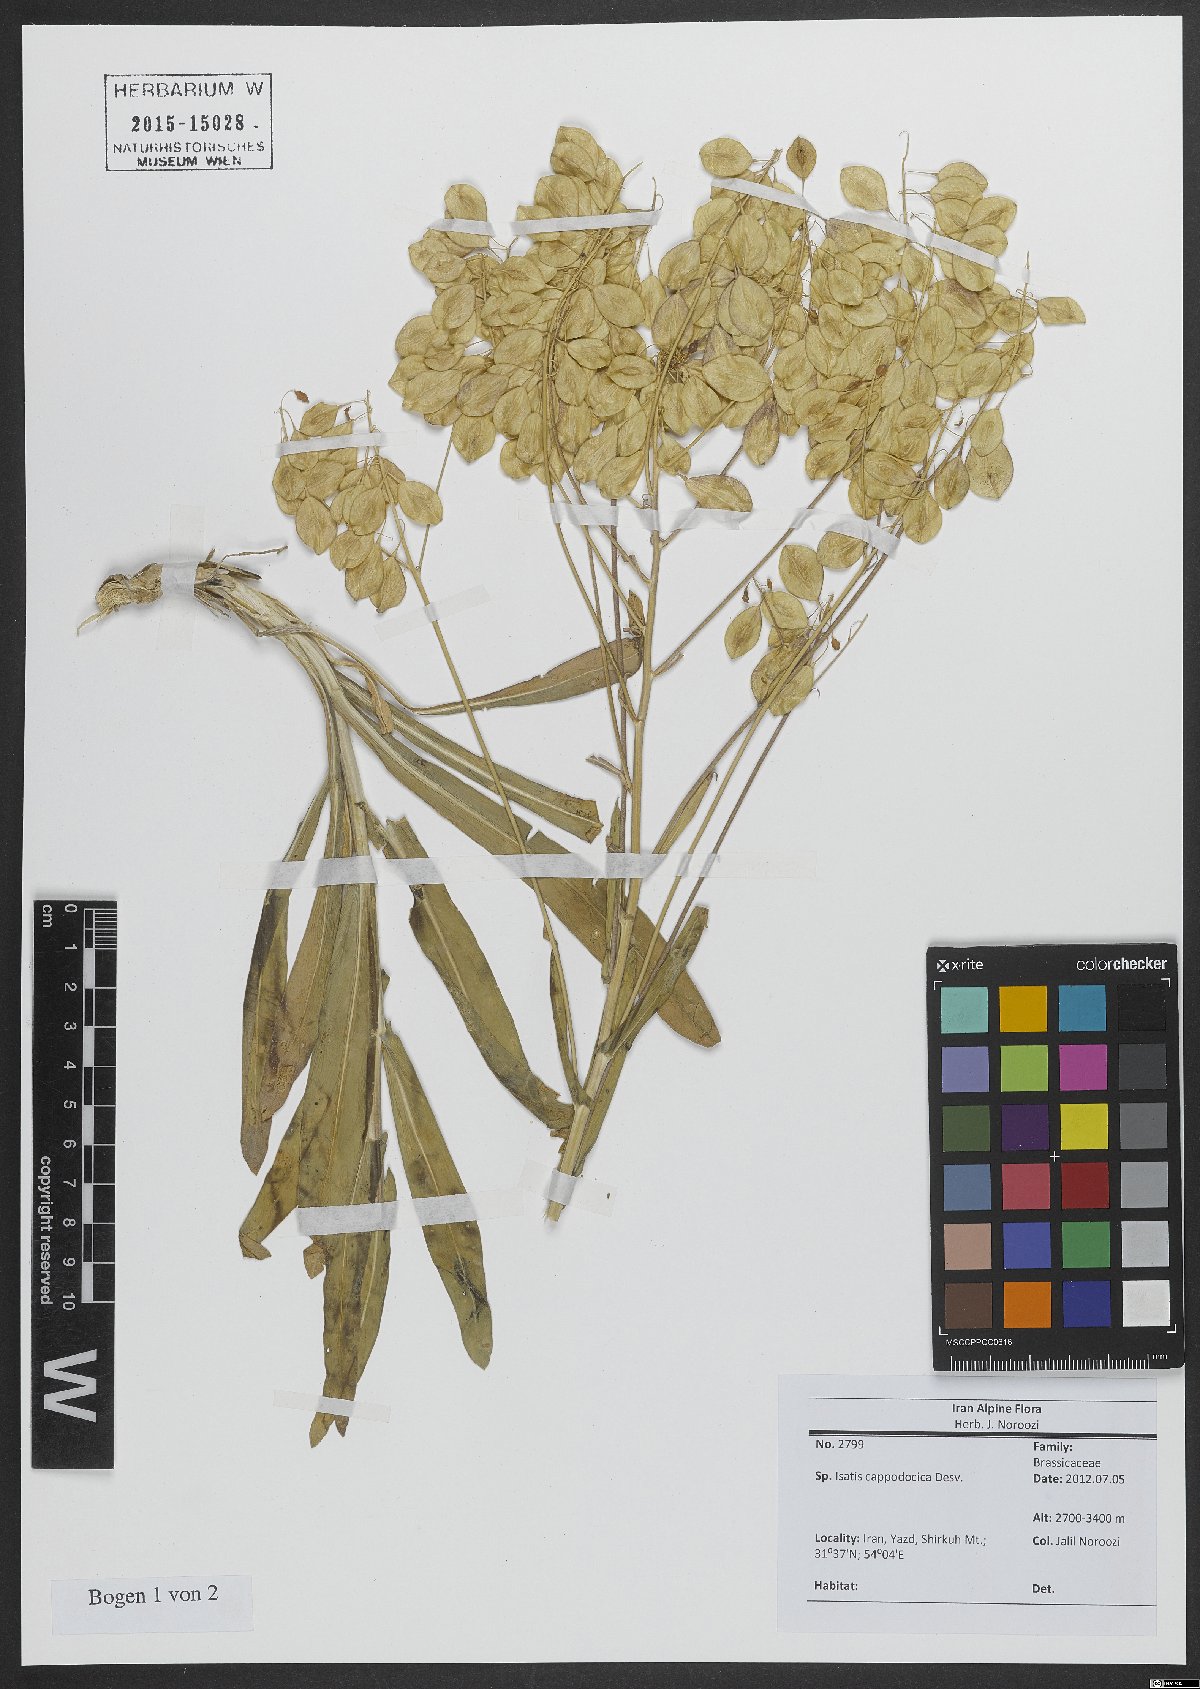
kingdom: Plantae
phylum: Tracheophyta
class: Magnoliopsida
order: Brassicales
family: Brassicaceae
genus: Isatis
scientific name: Isatis cappadocica
